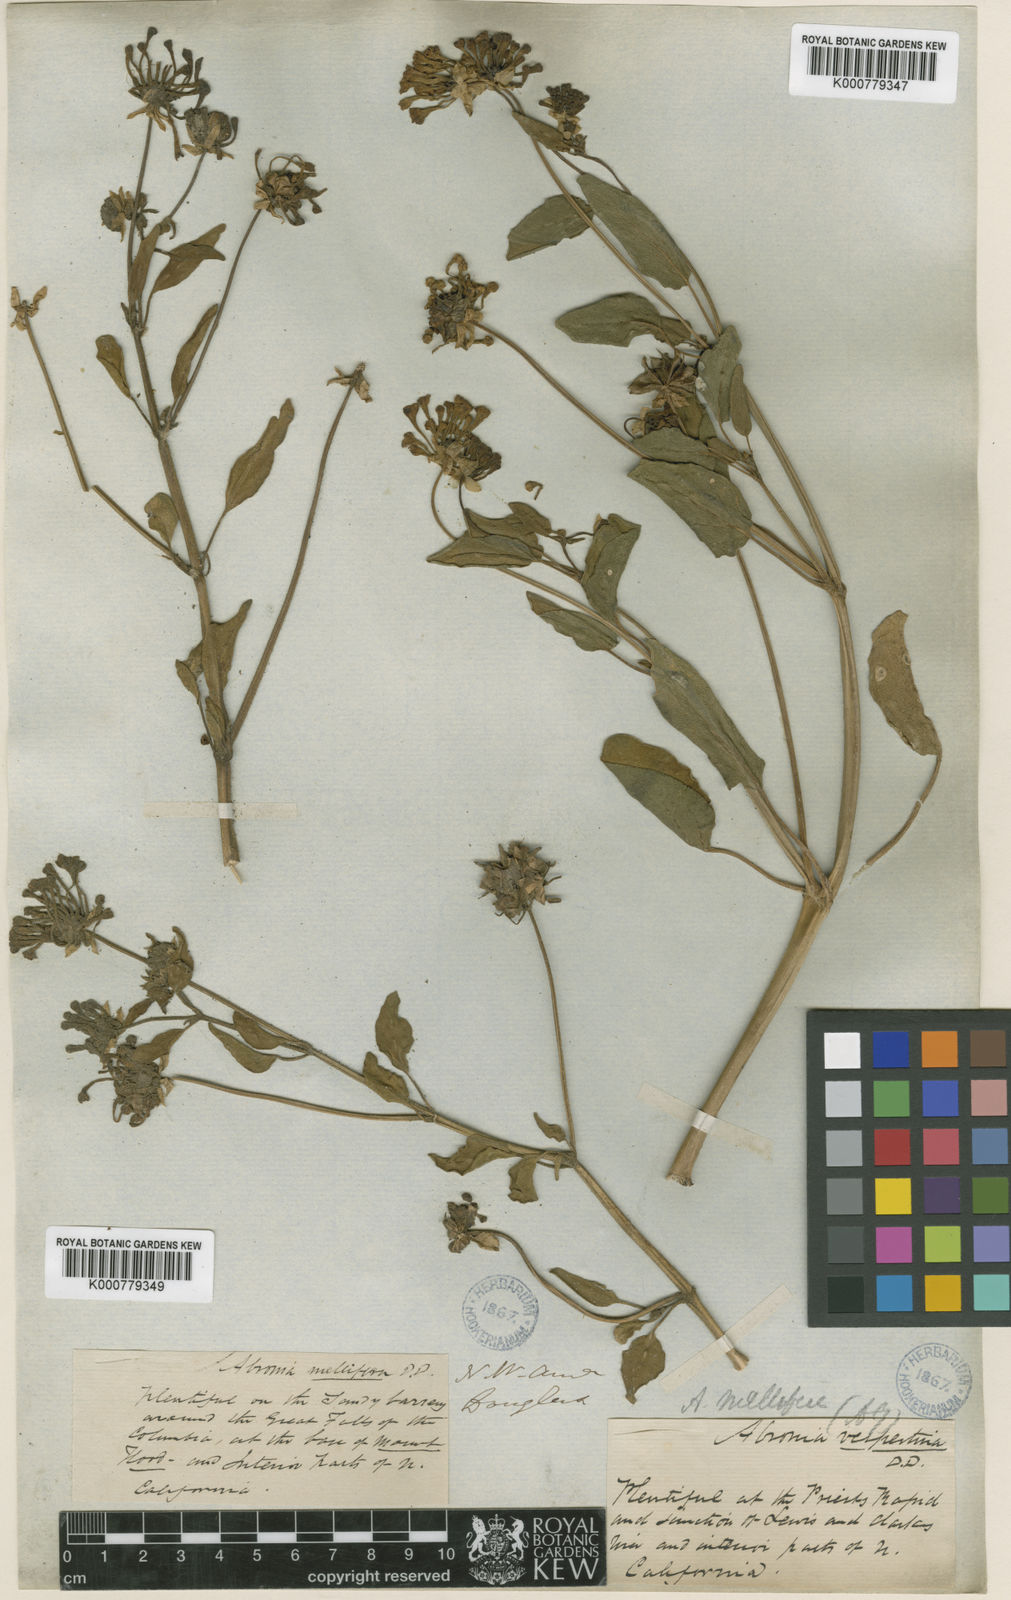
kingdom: Plantae
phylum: Tracheophyta
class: Magnoliopsida
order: Caryophyllales
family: Nyctaginaceae
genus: Abronia
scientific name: Abronia
